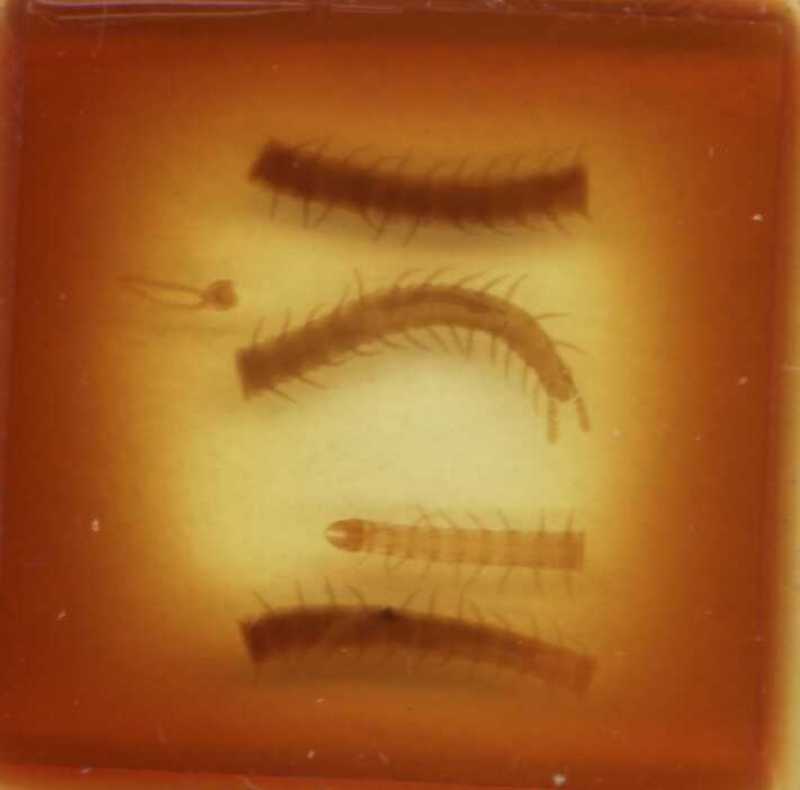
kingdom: Animalia
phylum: Arthropoda
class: Chilopoda
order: Geophilomorpha
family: Geophilidae
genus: Geoperingueyia
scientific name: Geoperingueyia dentata
